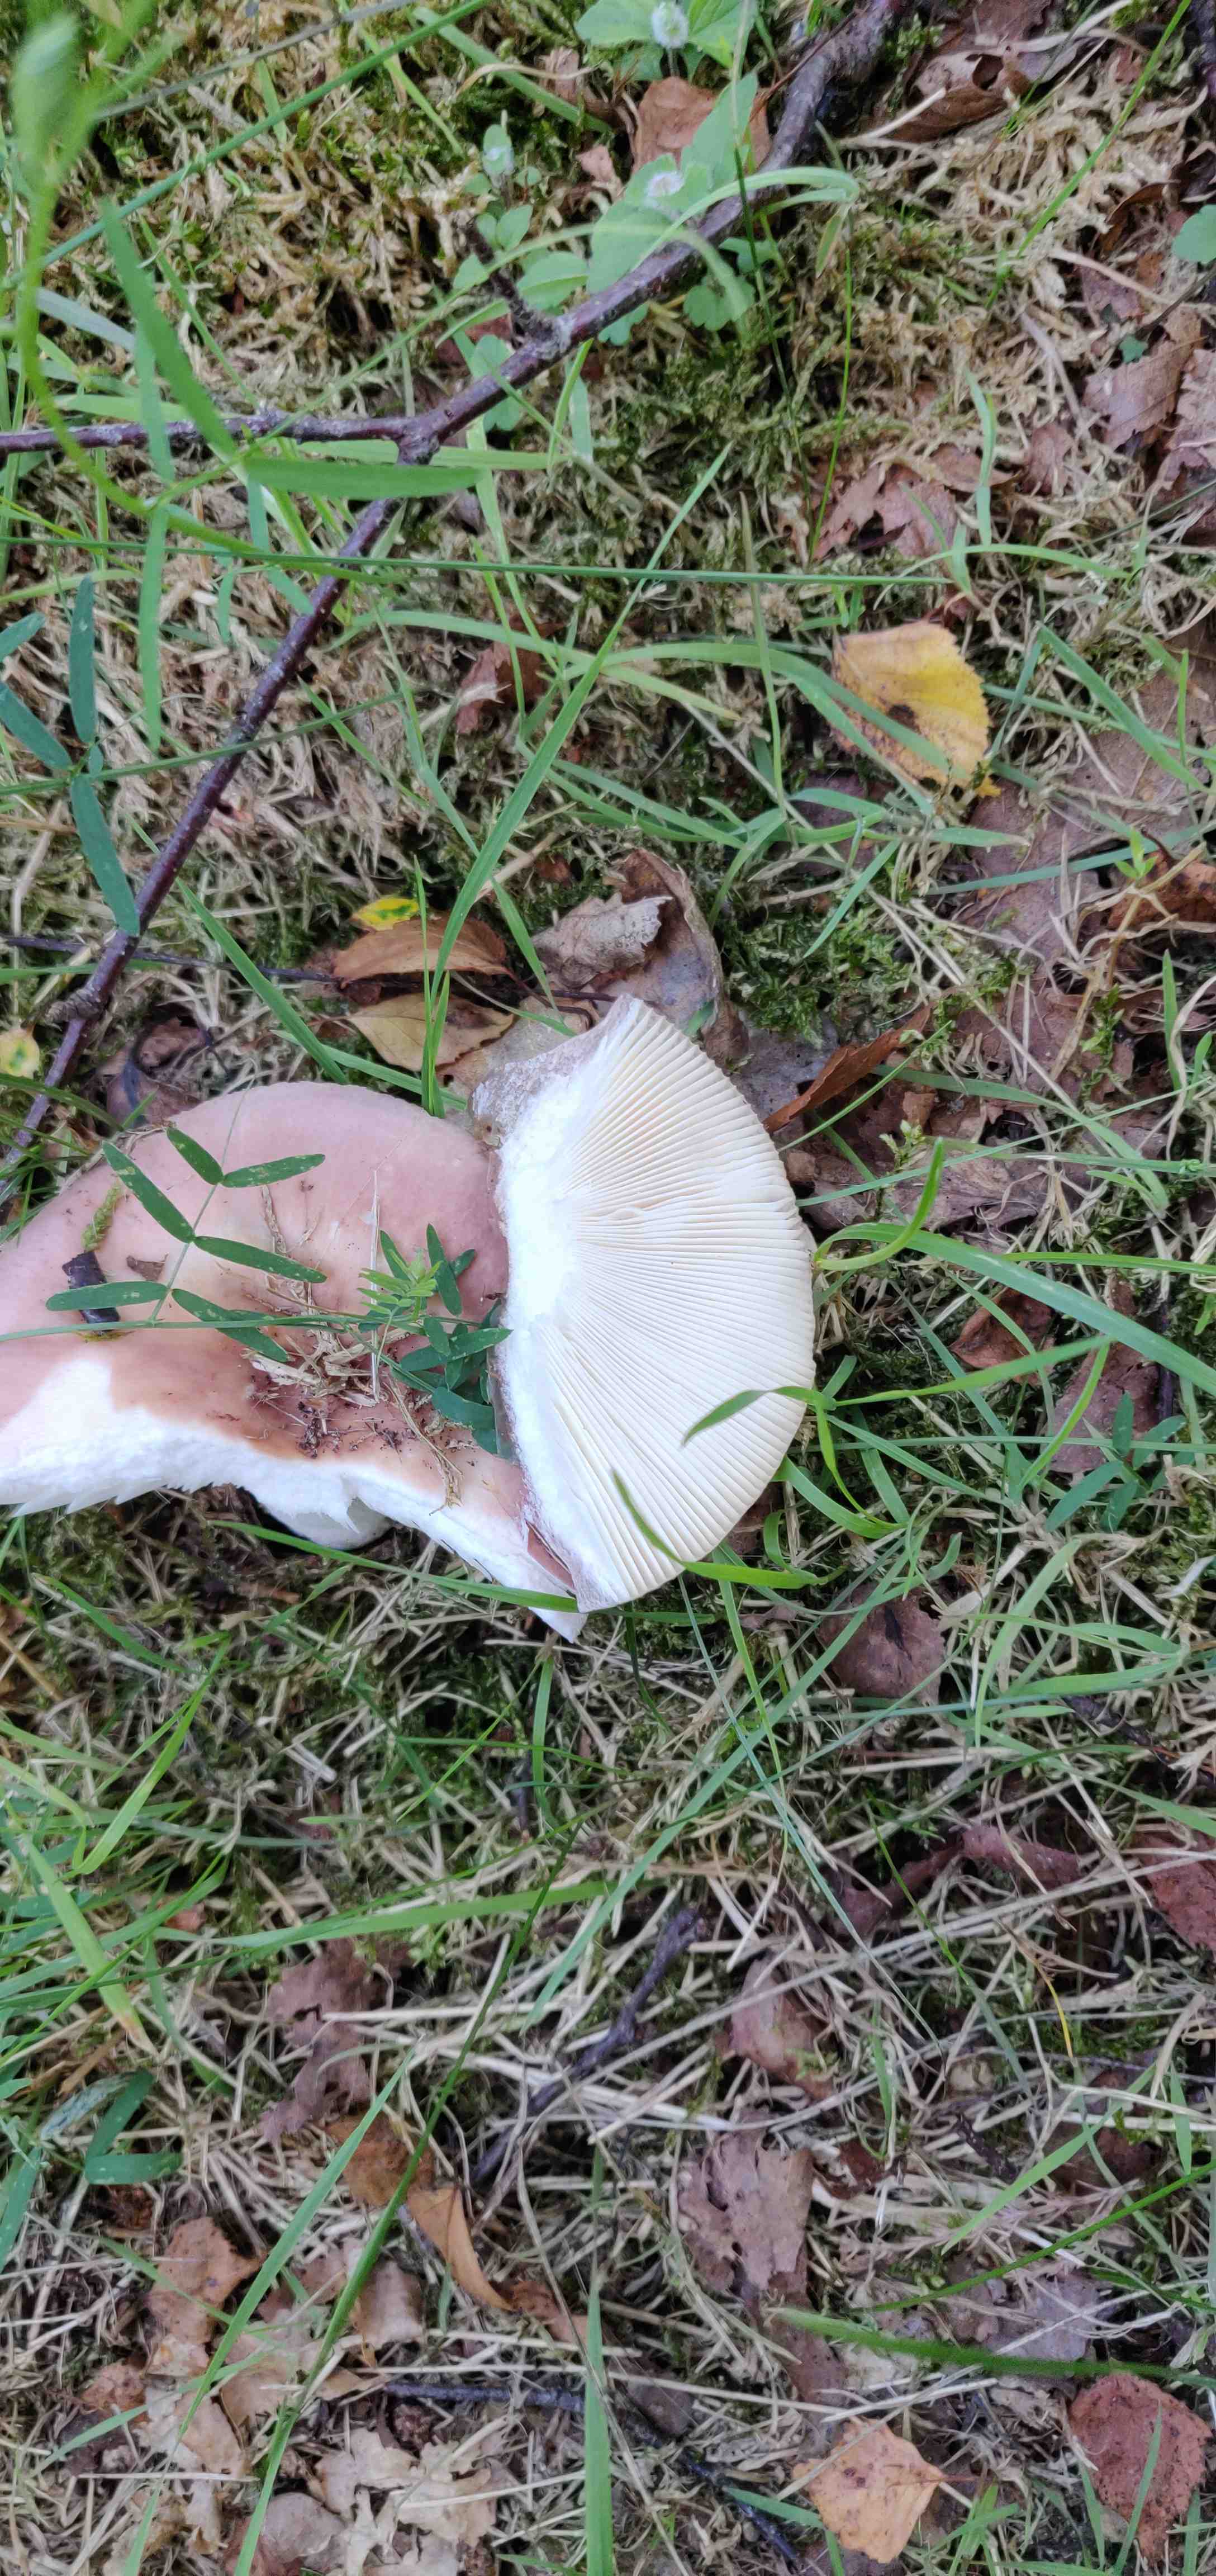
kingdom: Fungi
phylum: Basidiomycota
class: Agaricomycetes
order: Russulales
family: Russulaceae
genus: Russula
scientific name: Russula
